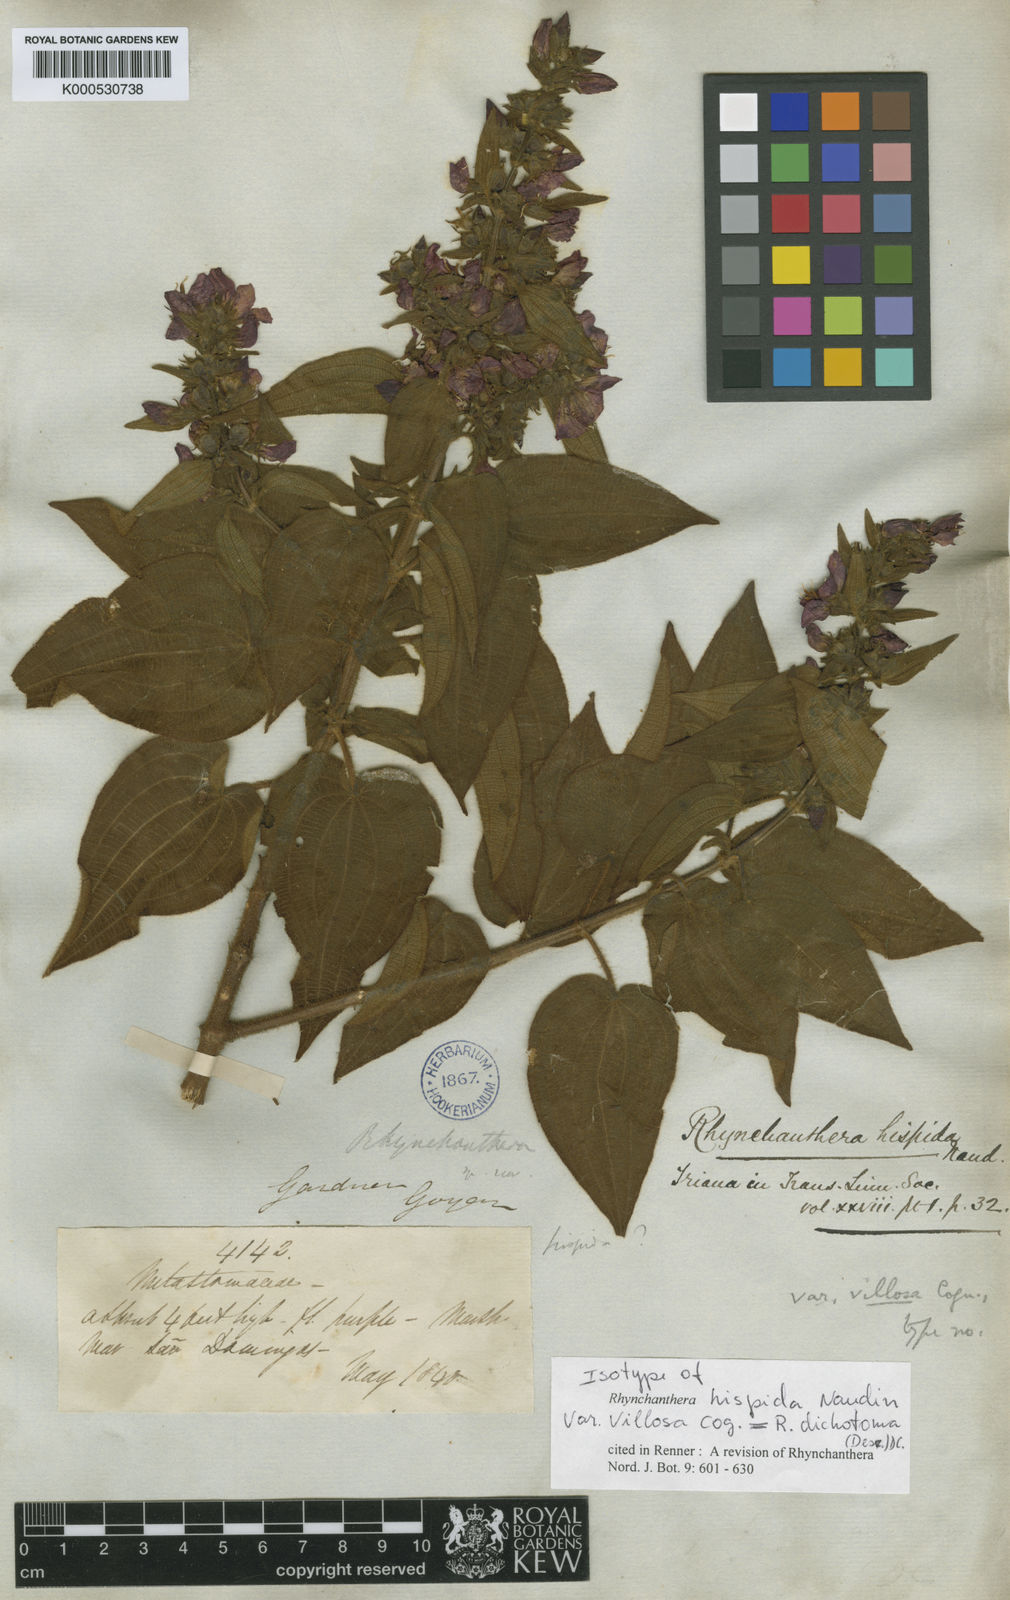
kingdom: Plantae
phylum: Tracheophyta
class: Magnoliopsida
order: Myrtales
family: Melastomataceae
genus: Rhynchanthera
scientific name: Rhynchanthera dichotoma
